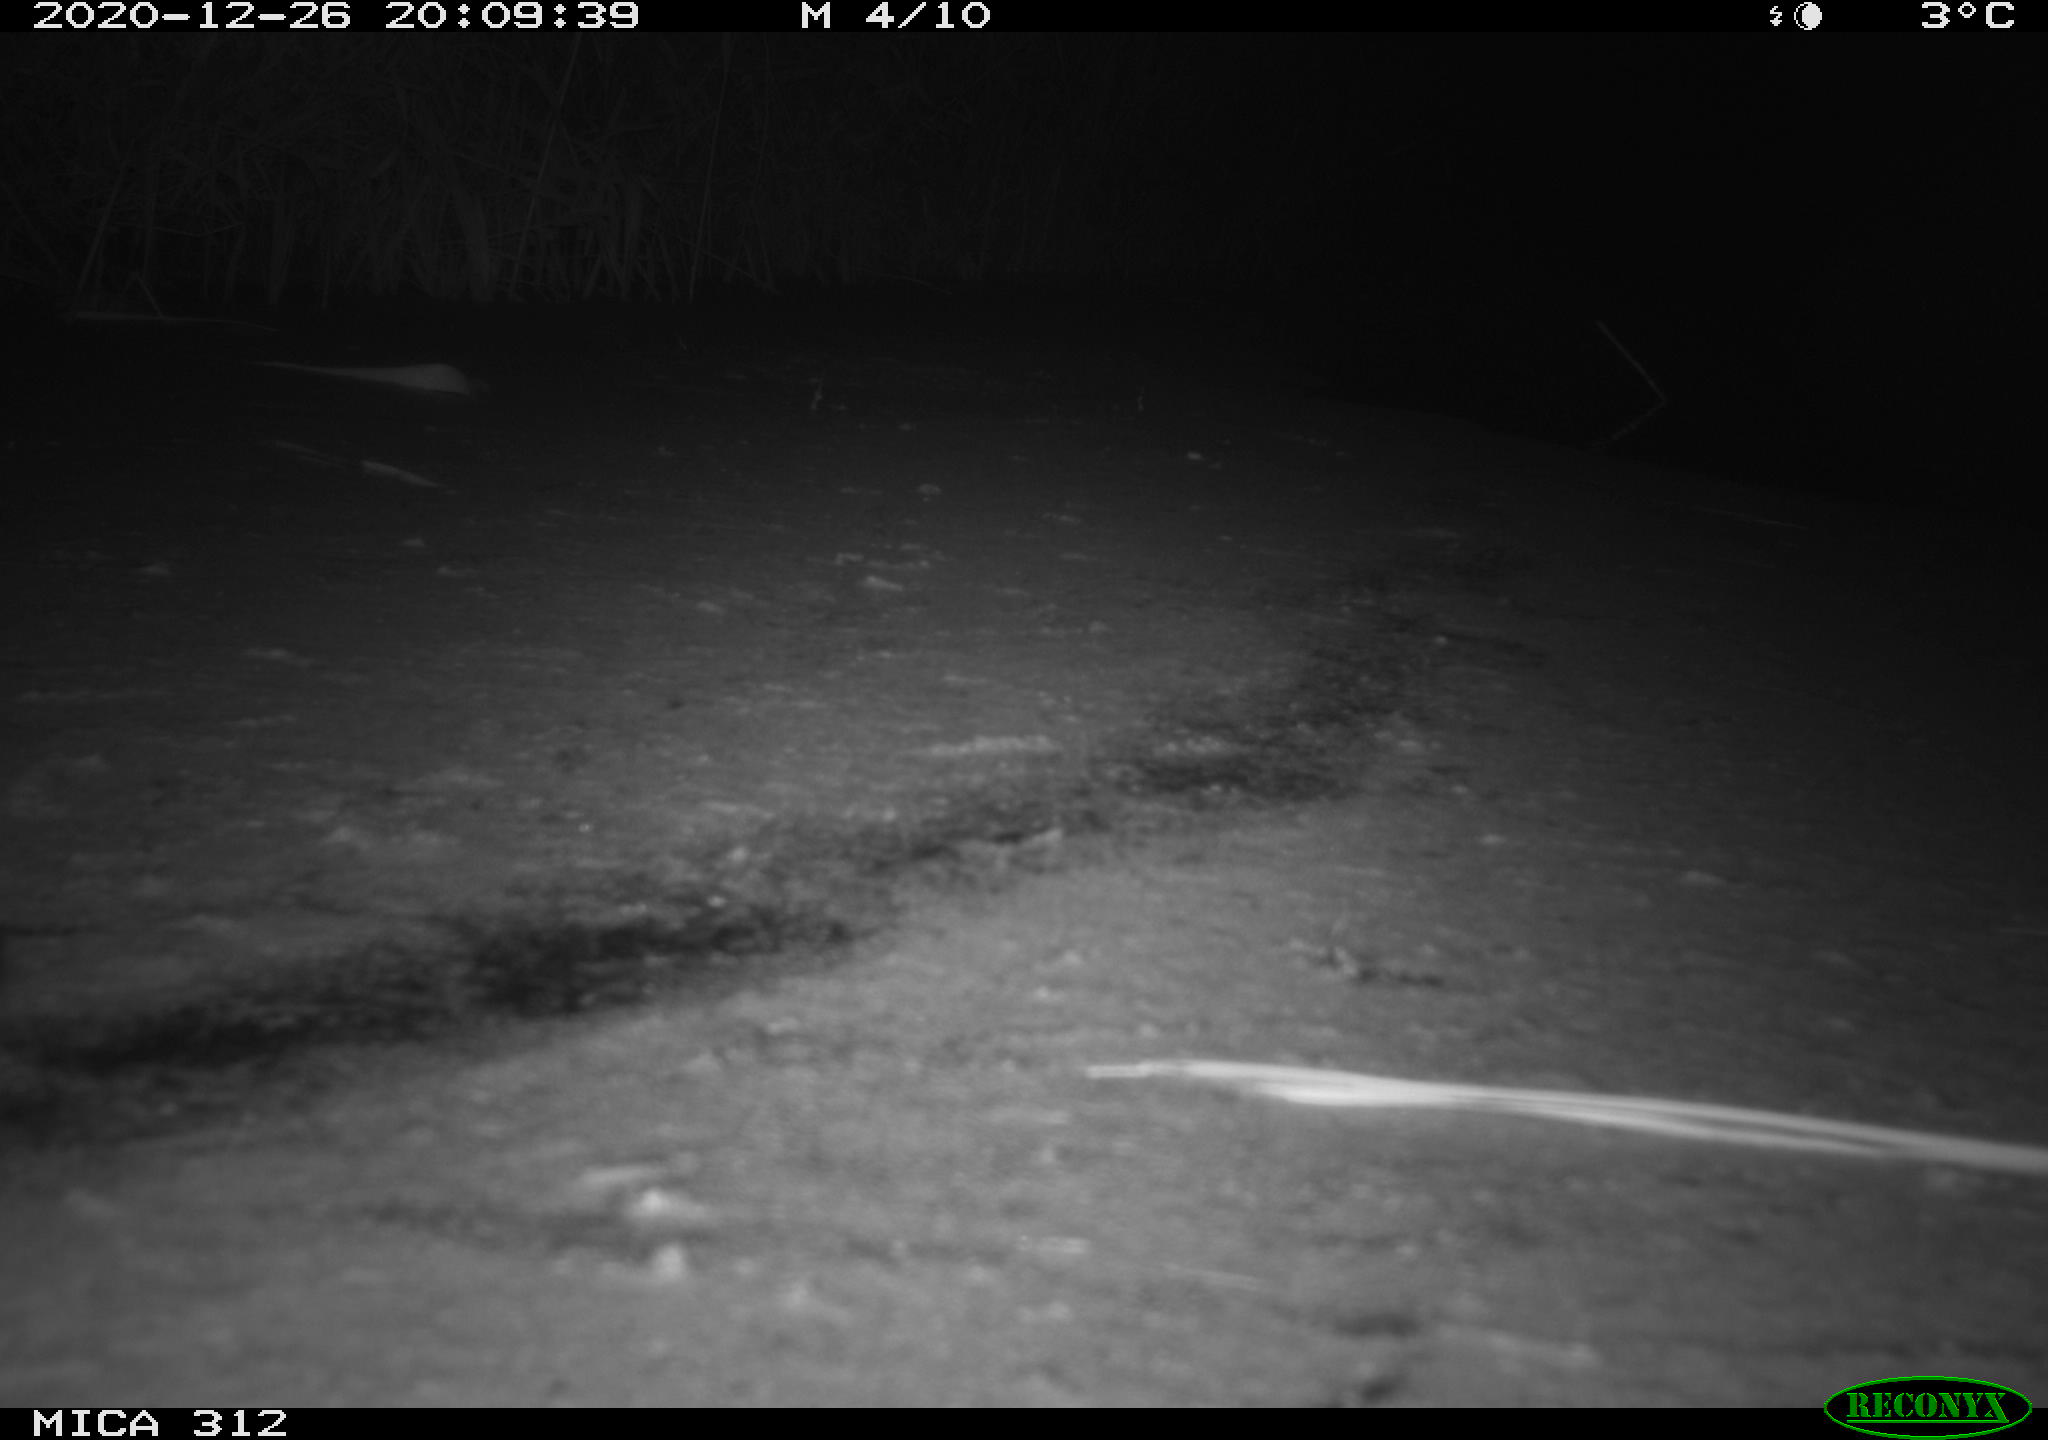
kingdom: Animalia
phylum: Chordata
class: Aves
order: Gruiformes
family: Rallidae
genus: Gallinula
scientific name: Gallinula chloropus
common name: Common moorhen
